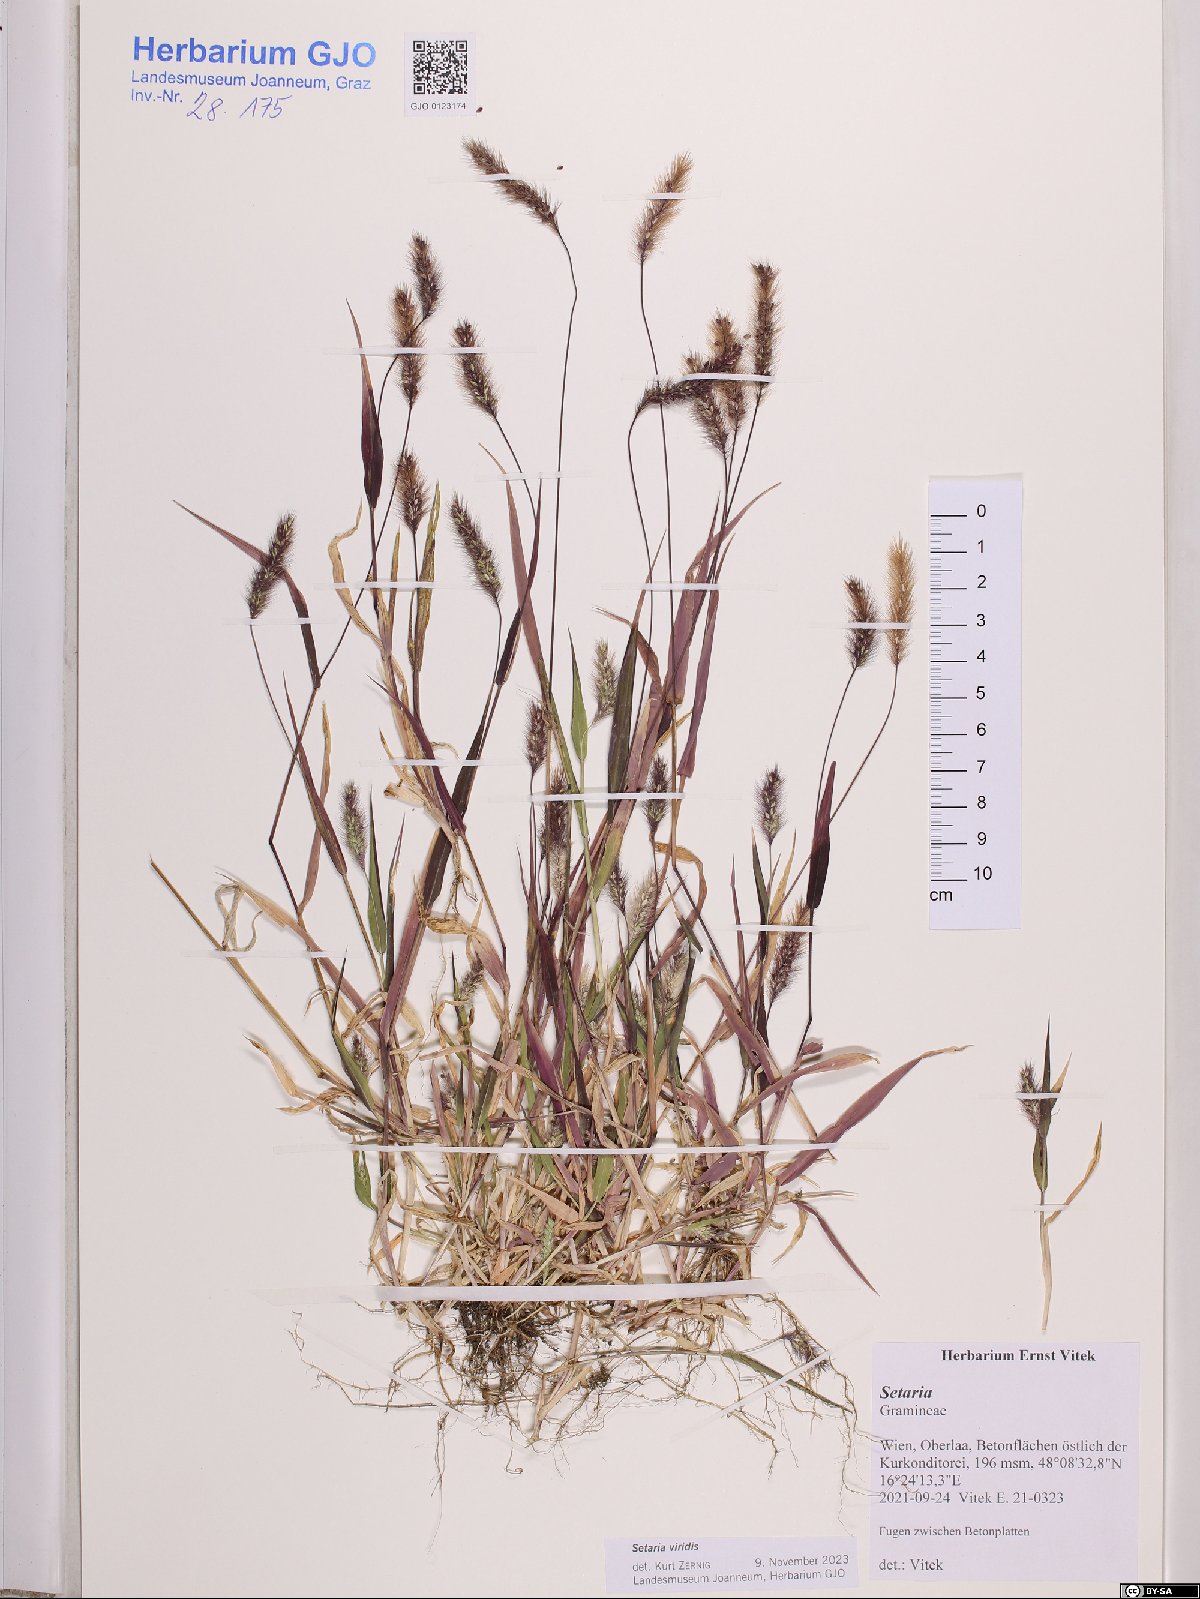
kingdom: Plantae
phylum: Tracheophyta
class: Liliopsida
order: Poales
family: Poaceae
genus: Setaria
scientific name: Setaria viridis
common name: Green bristlegrass
